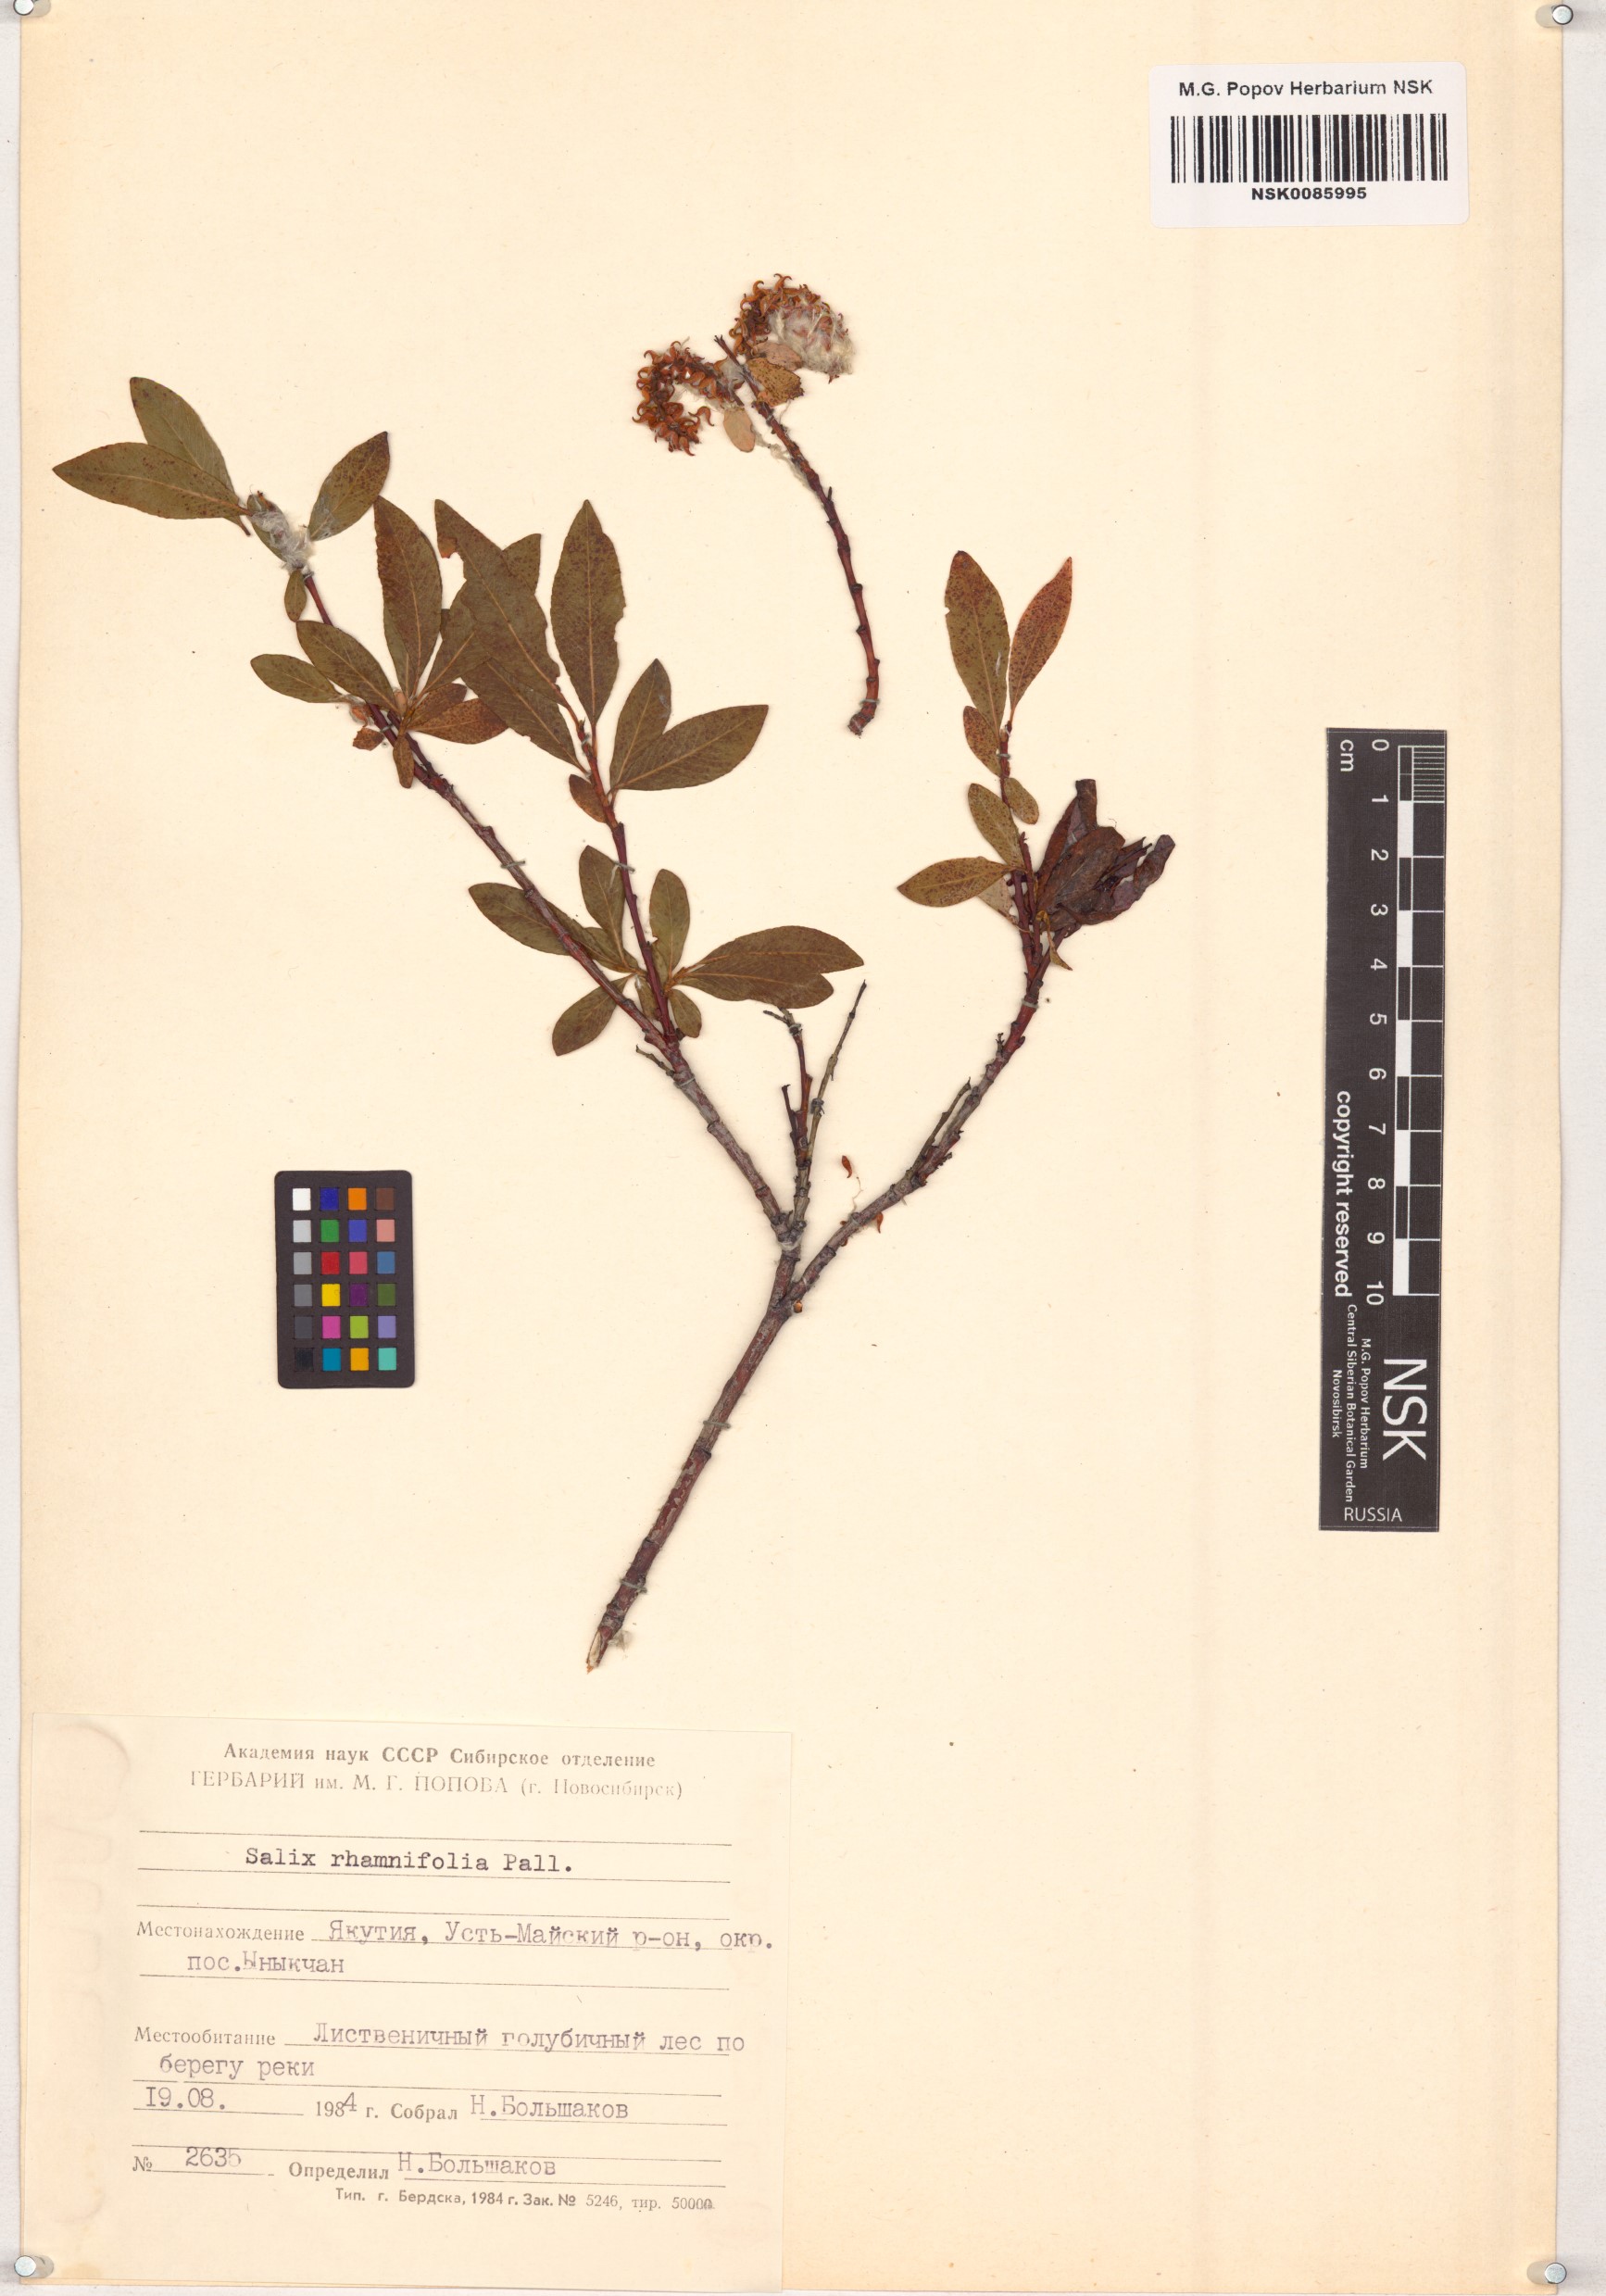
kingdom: Plantae
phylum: Tracheophyta
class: Magnoliopsida
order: Malpighiales
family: Salicaceae
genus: Salix
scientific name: Salix rhamnifolia
